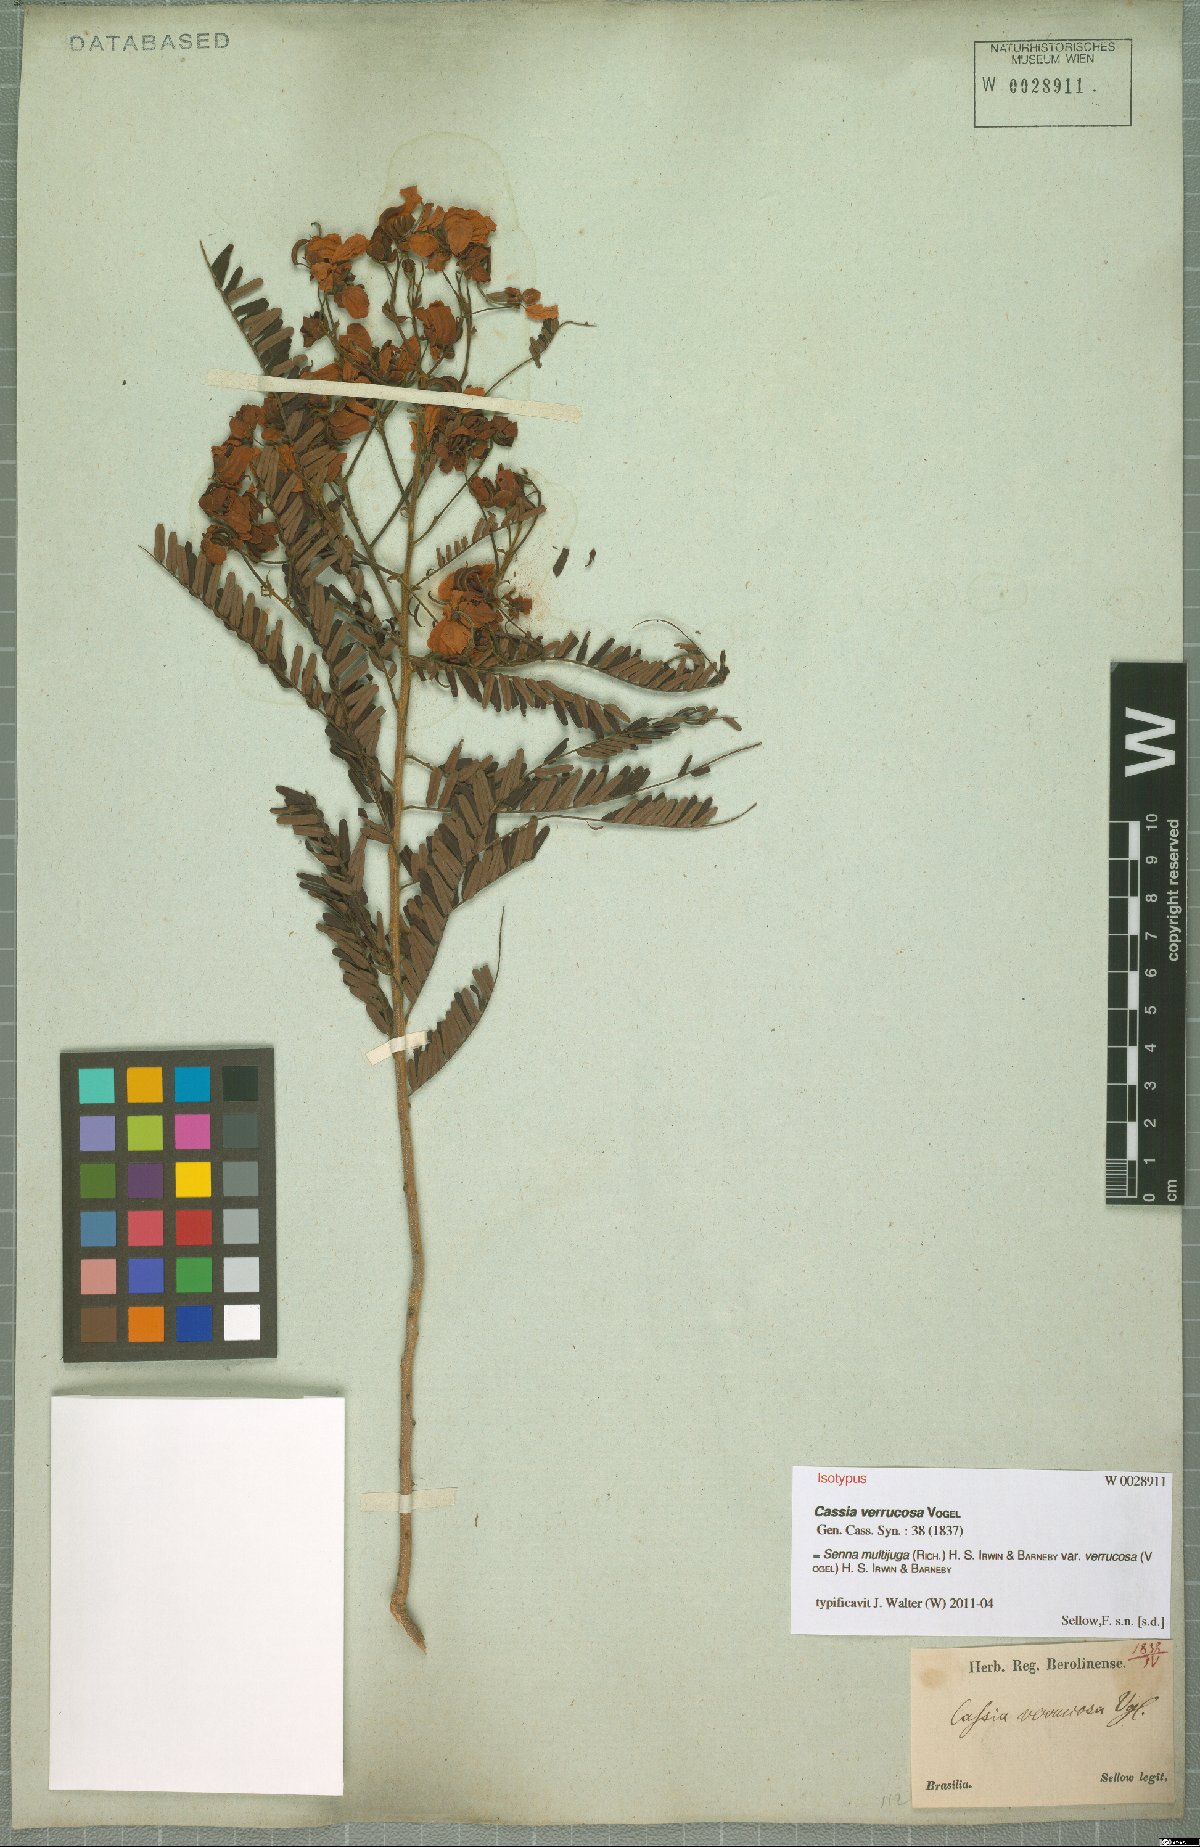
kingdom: Plantae
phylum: Tracheophyta
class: Magnoliopsida
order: Fabales
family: Fabaceae
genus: Senna
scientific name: Senna multijuga
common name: False sicklepod
